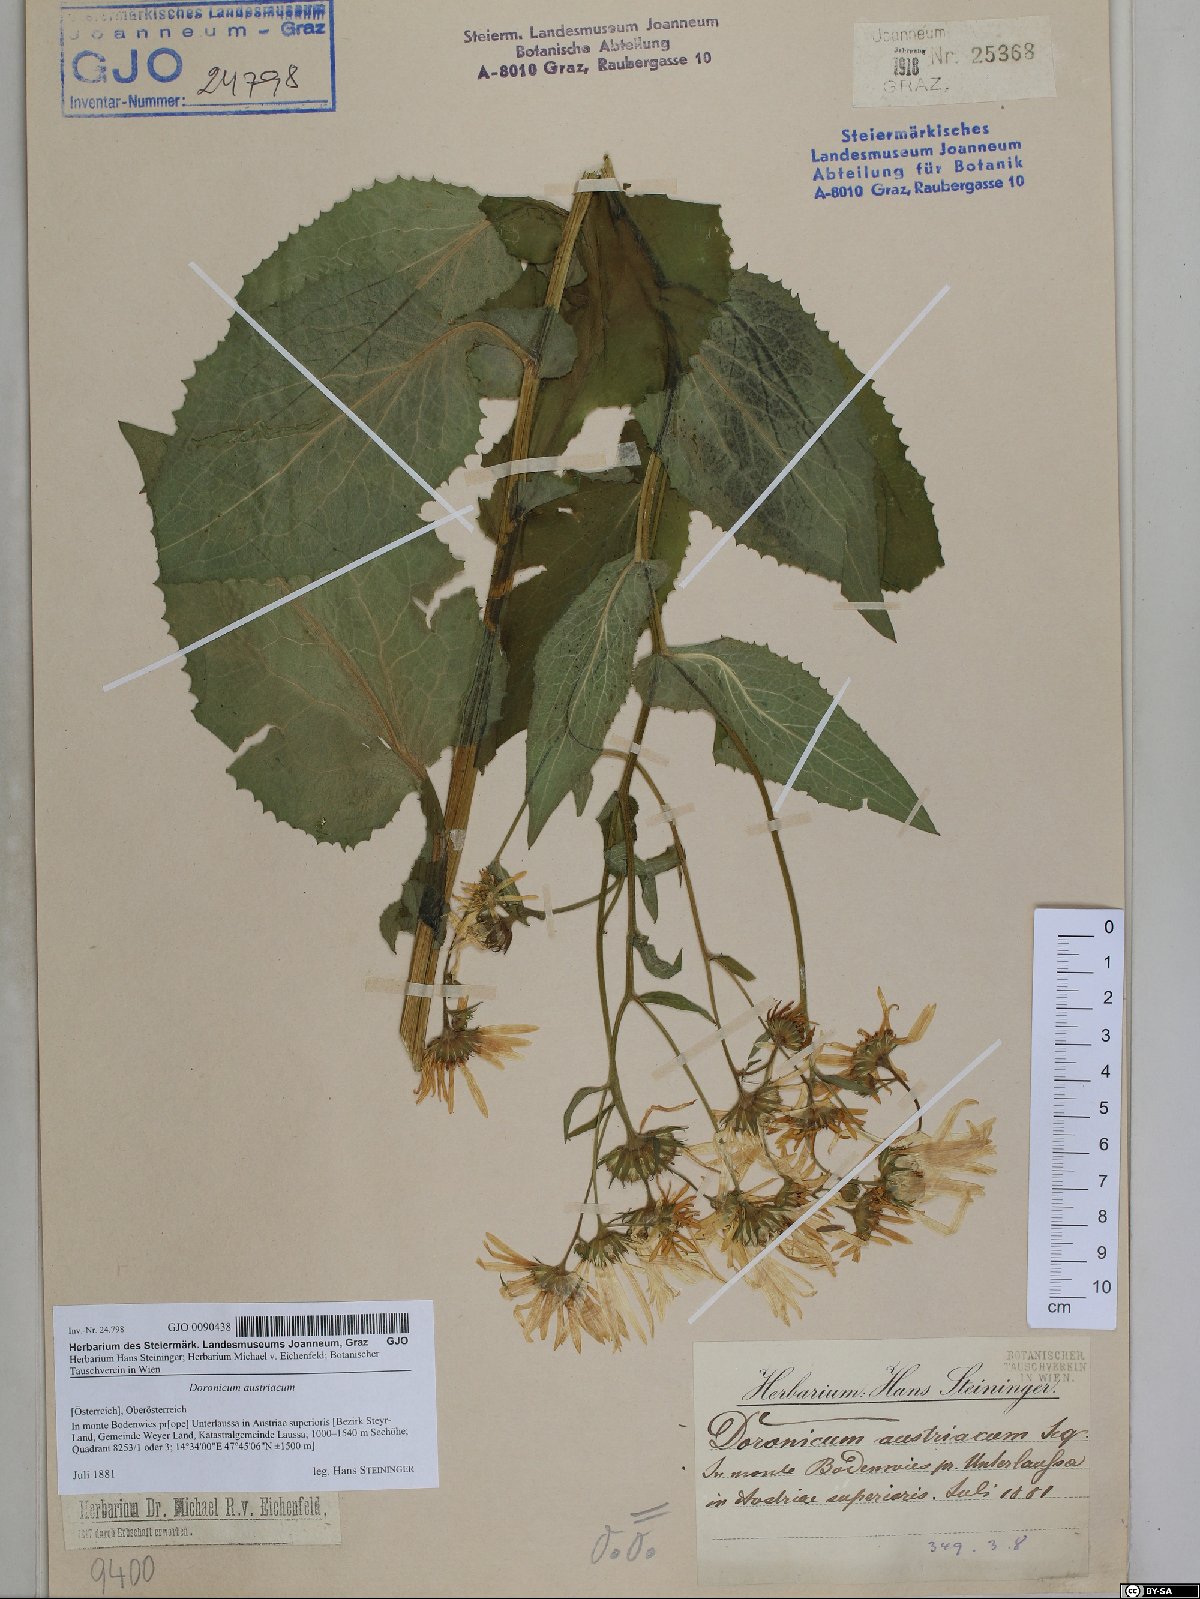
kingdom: Plantae
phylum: Tracheophyta
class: Magnoliopsida
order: Asterales
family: Asteraceae
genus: Doronicum
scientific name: Doronicum austriacum
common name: Austrian leopard's-bane
